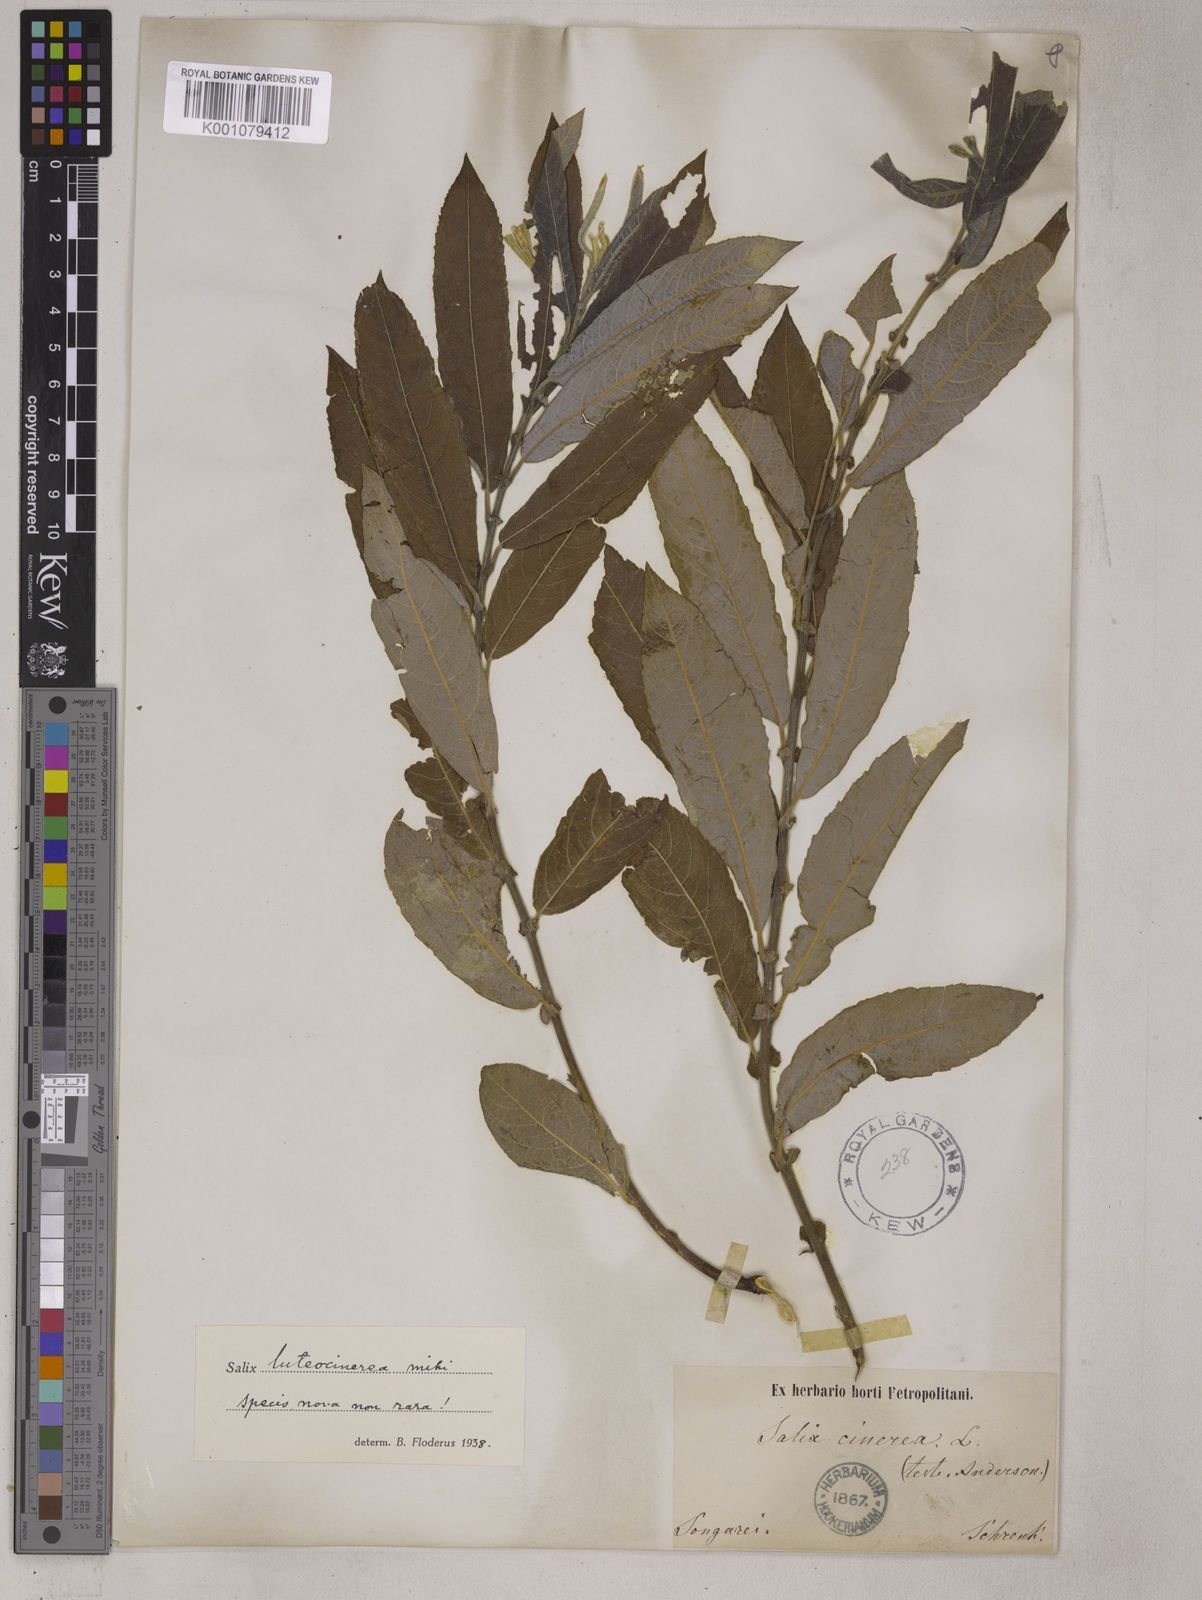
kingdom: Plantae
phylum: Tracheophyta
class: Magnoliopsida
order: Malpighiales
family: Salicaceae
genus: Salix
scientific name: Salix tetrasperma
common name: Indian willow
